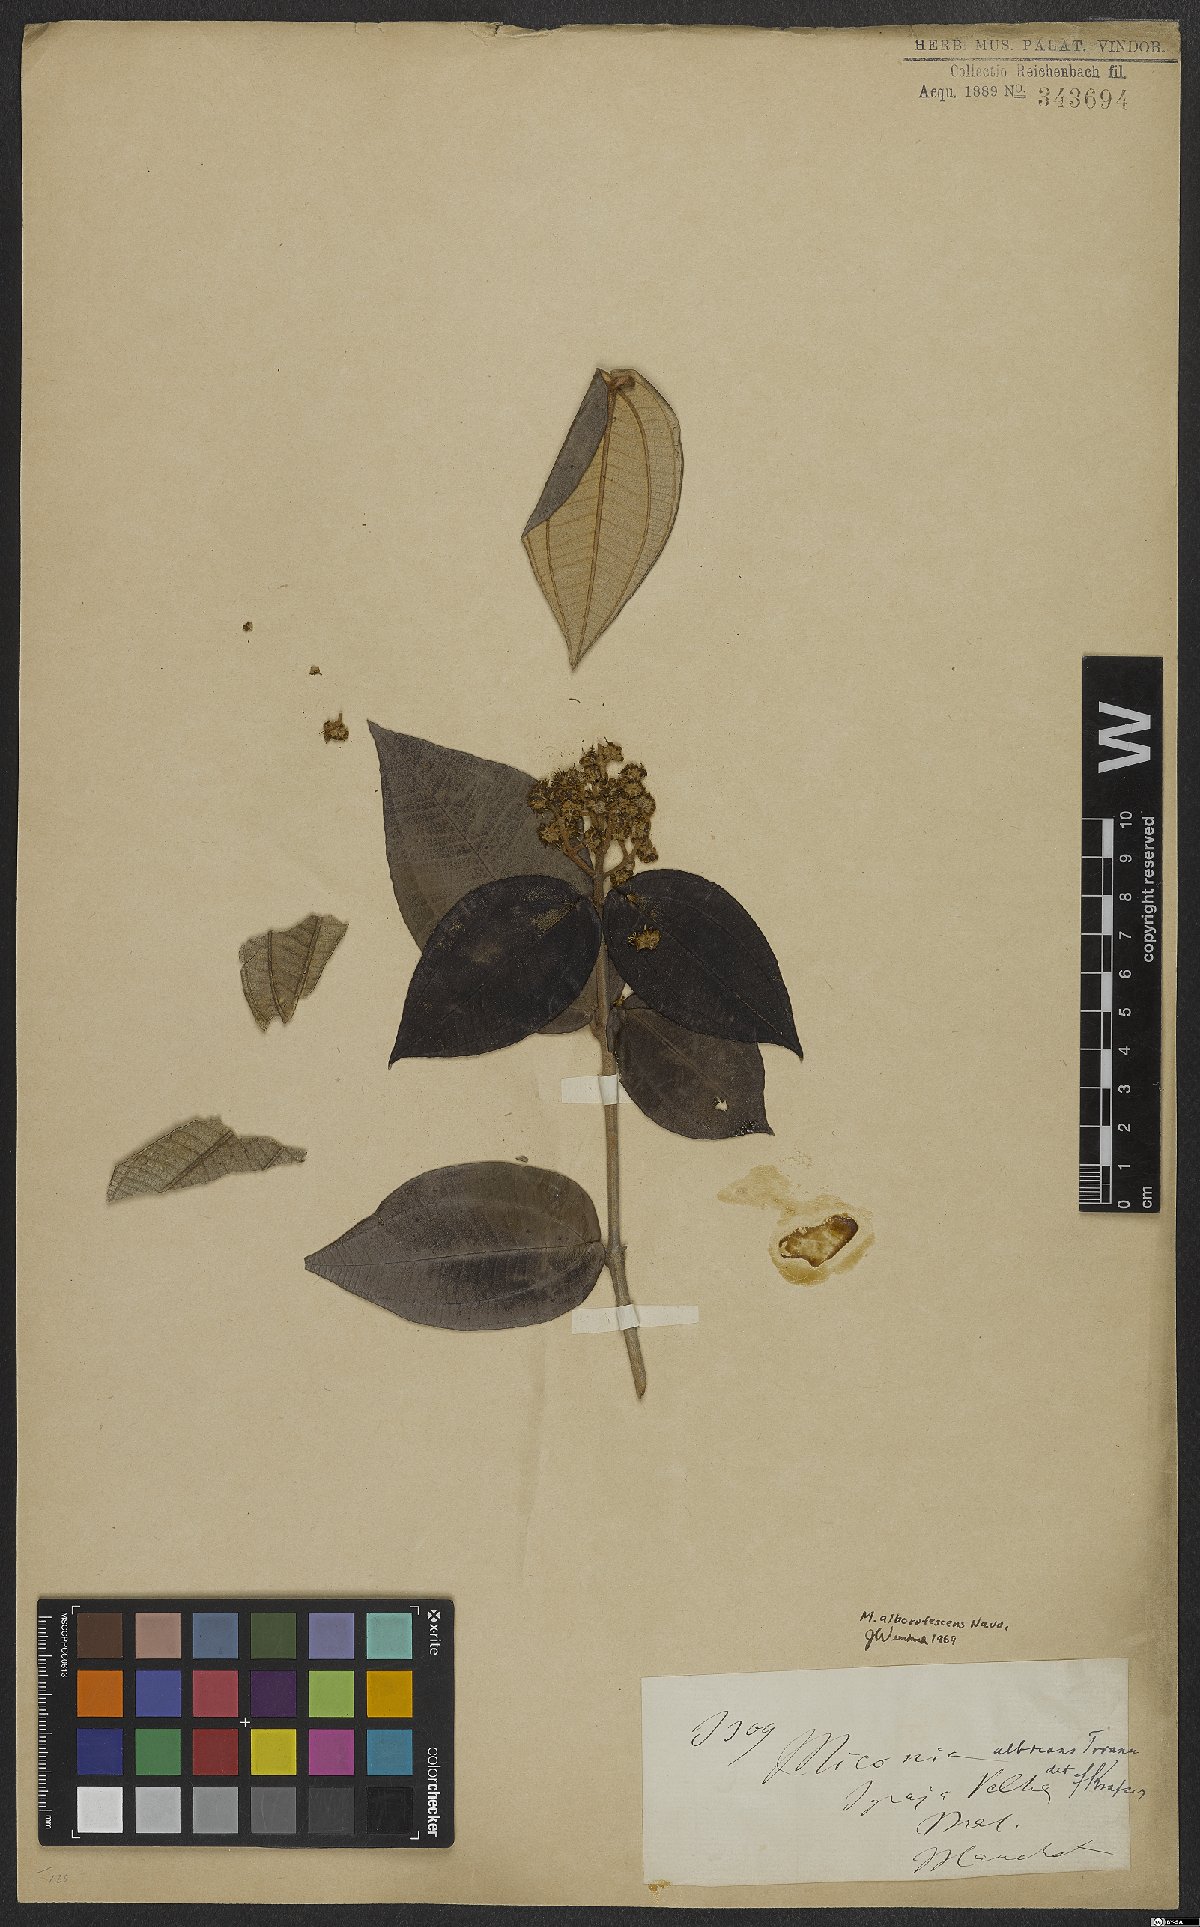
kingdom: Plantae
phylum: Tracheophyta
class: Magnoliopsida
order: Myrtales
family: Melastomataceae
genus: Miconia
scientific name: Miconia alborufescens
